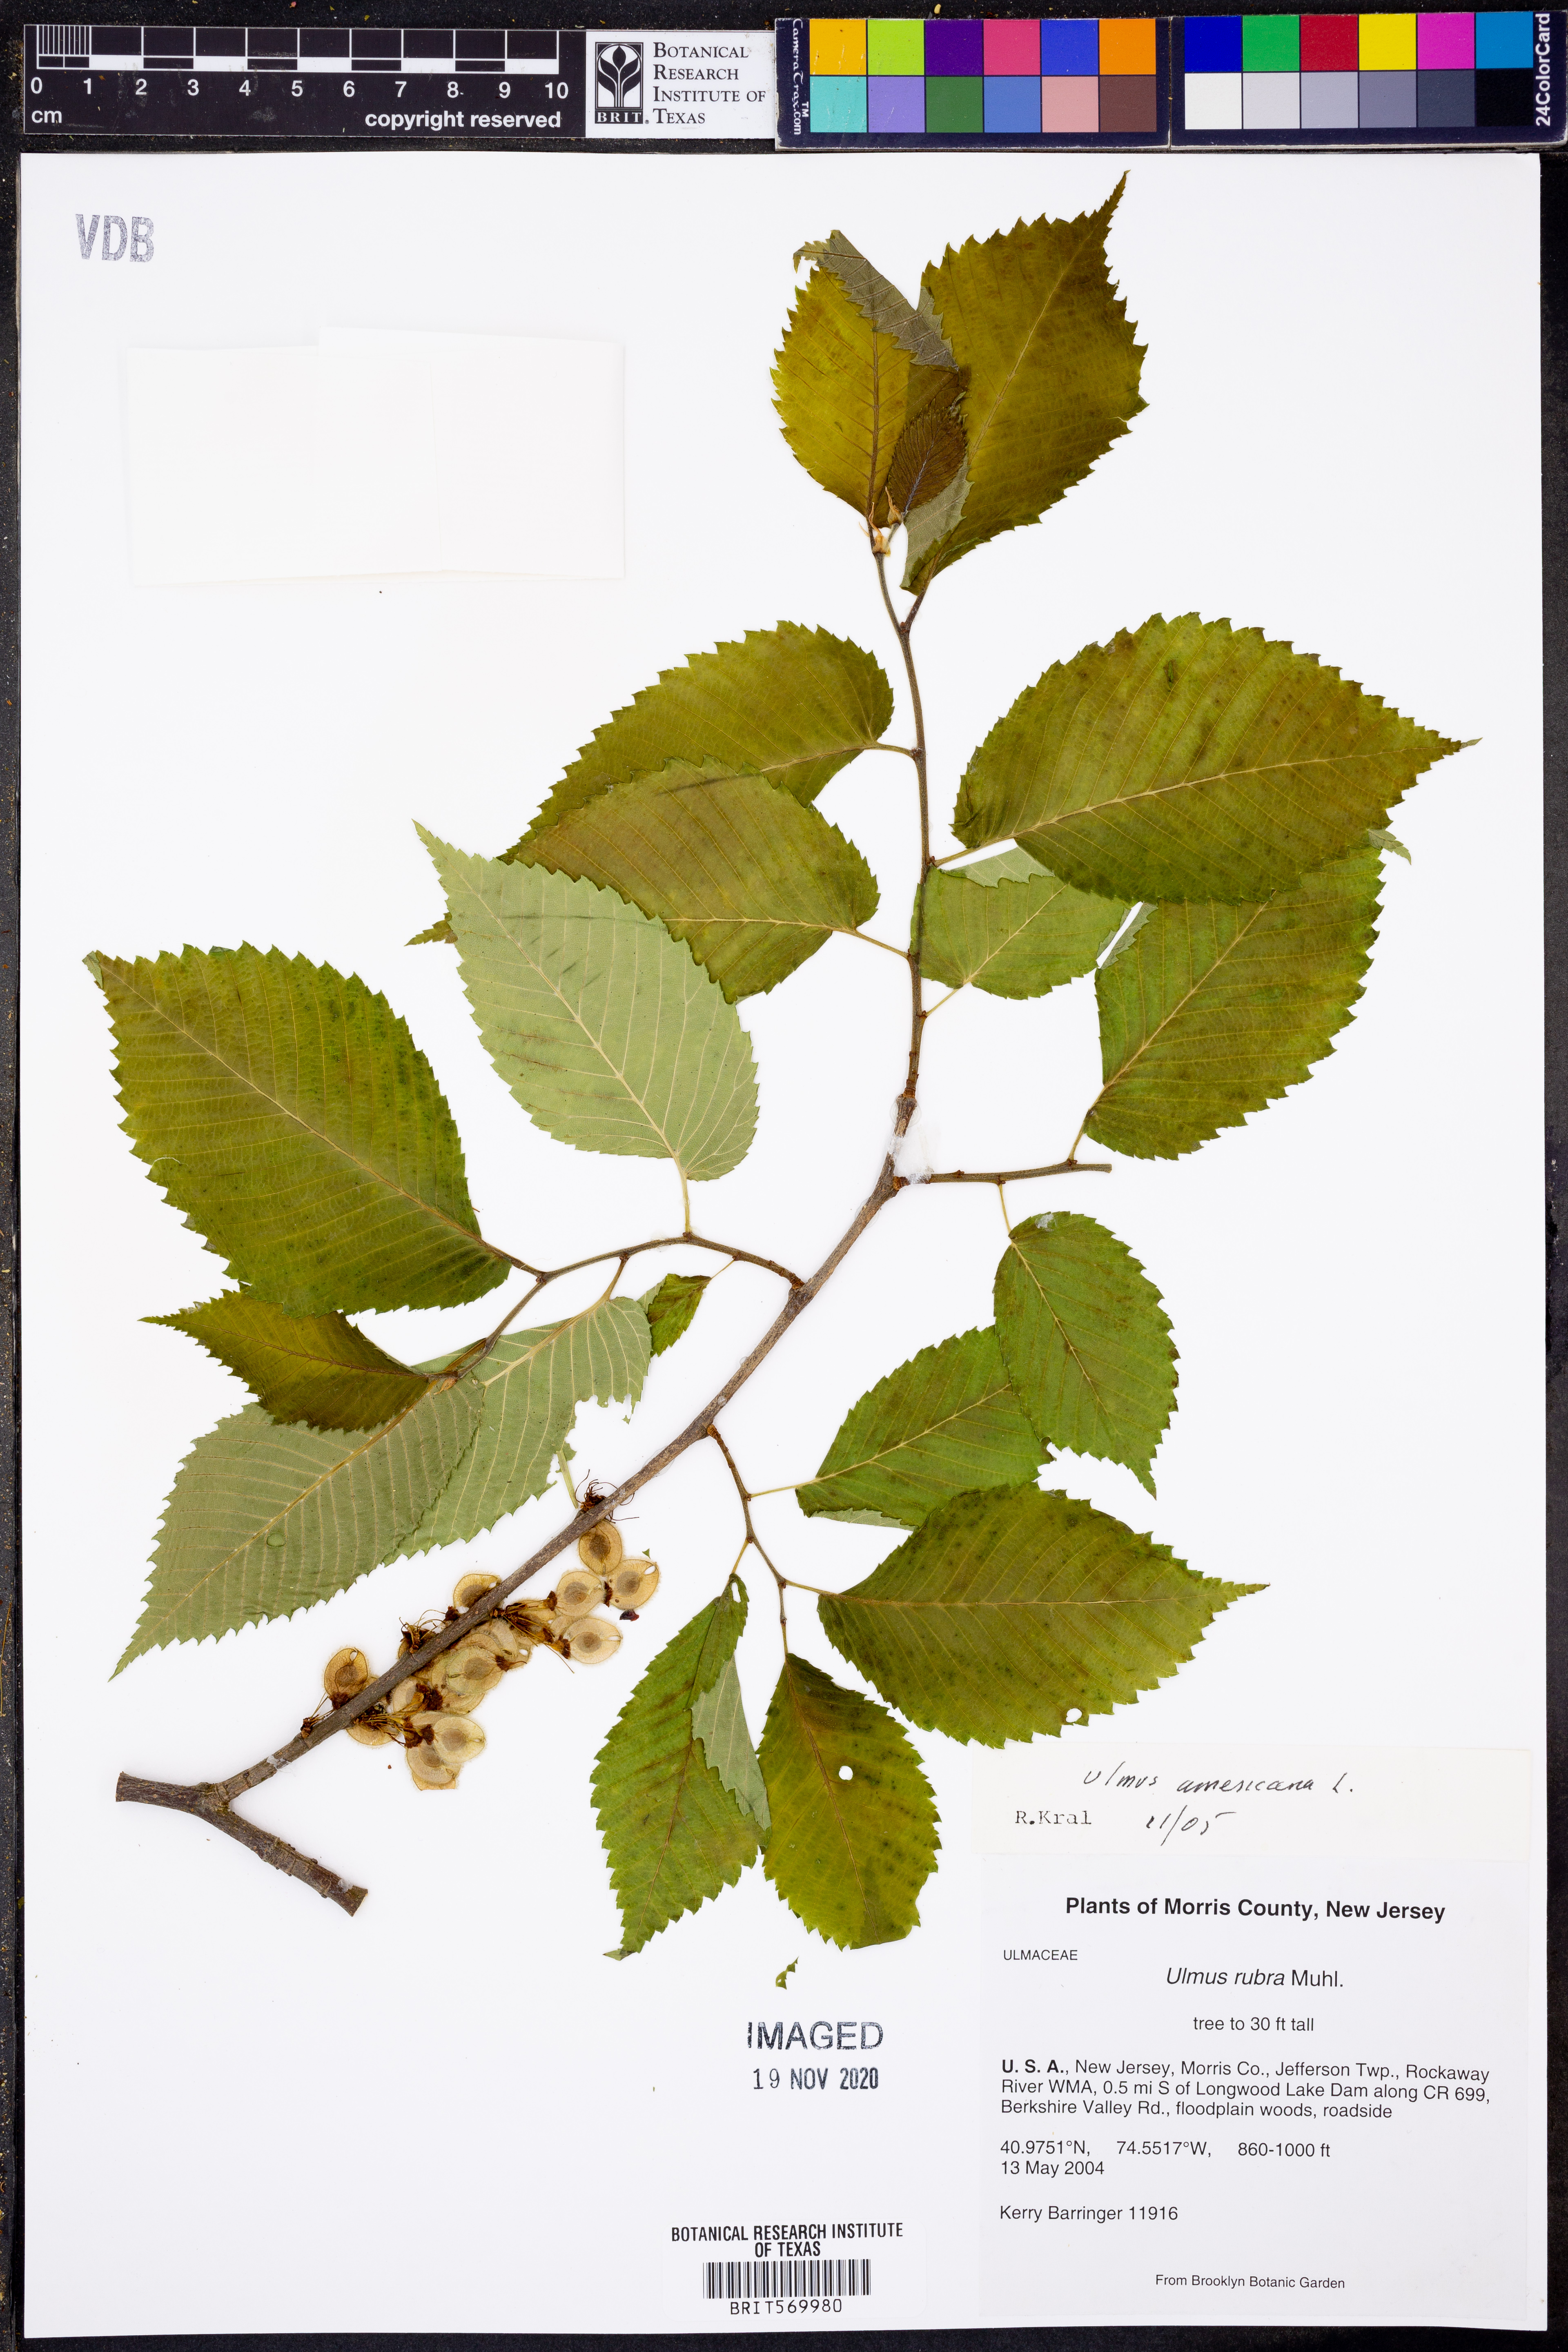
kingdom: Plantae
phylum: Tracheophyta
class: Magnoliopsida
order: Rosales
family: Ulmaceae
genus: Ulmus
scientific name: Ulmus americana
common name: American elm
